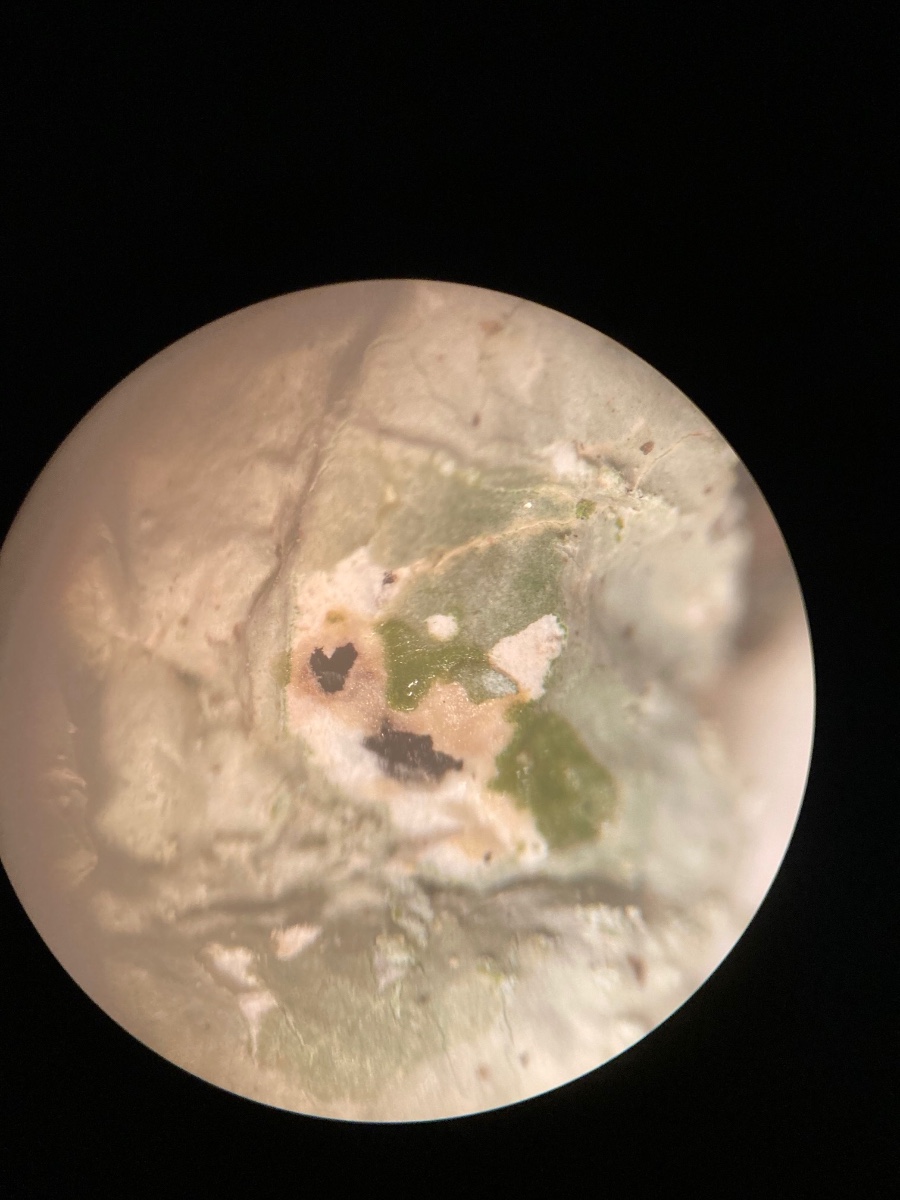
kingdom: Fungi
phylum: Ascomycota
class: Lecanoromycetes
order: Lecanorales
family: Parmeliaceae
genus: Flavoparmelia
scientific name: Flavoparmelia caperata
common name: gulgrøn skållav
